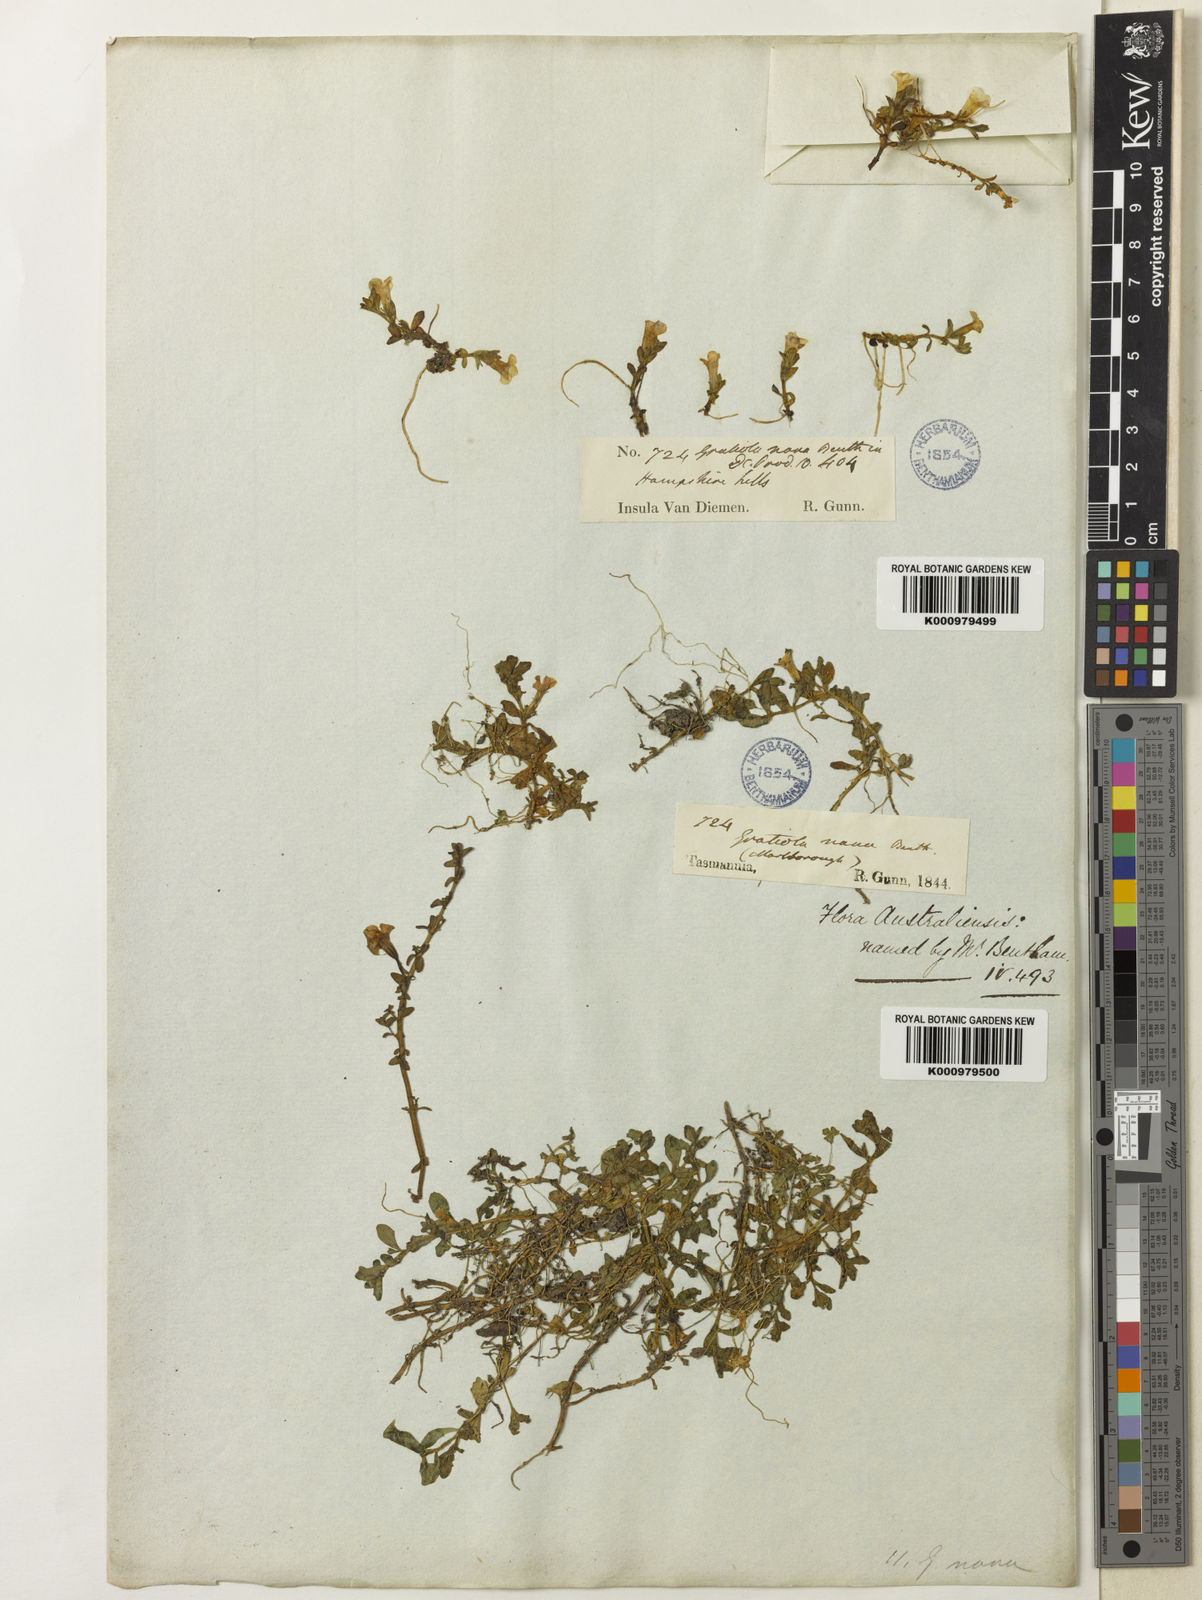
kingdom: Plantae
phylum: Tracheophyta
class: Magnoliopsida
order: Lamiales
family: Plantaginaceae
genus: Gratiola
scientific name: Gratiola nana
